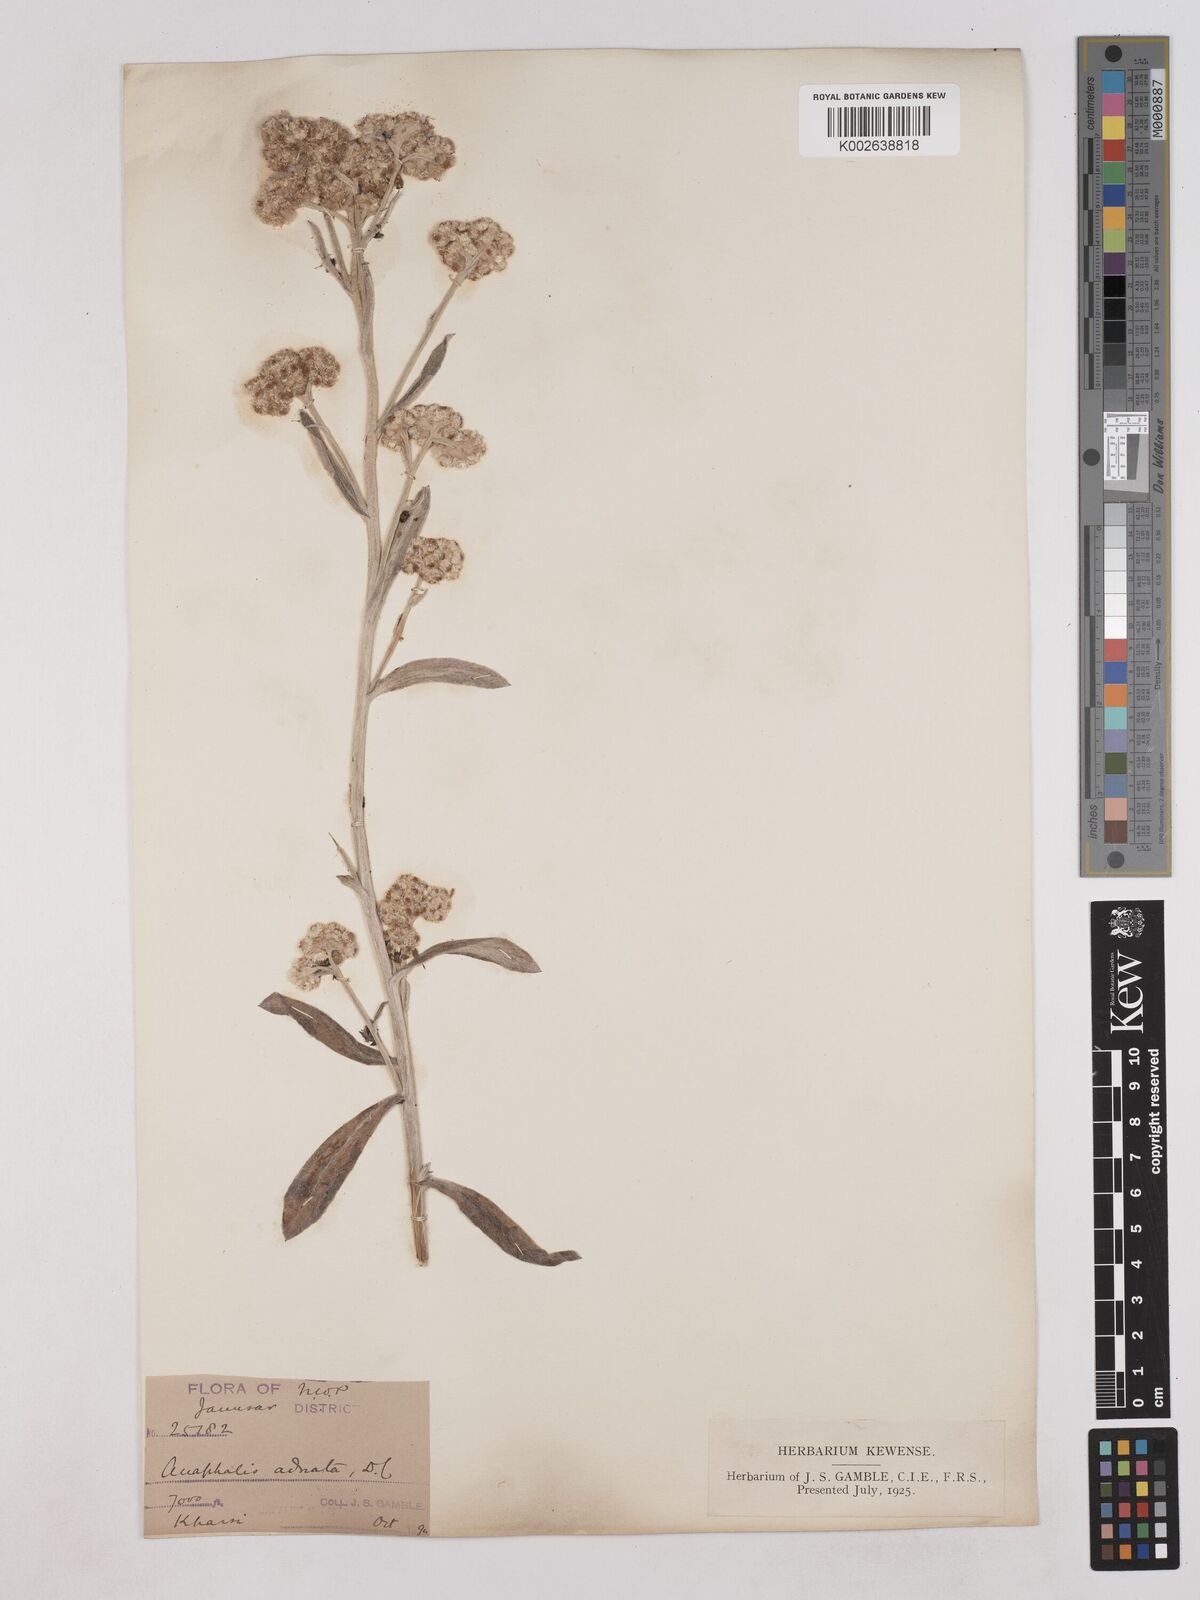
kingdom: Plantae
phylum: Tracheophyta
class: Magnoliopsida
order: Asterales
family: Asteraceae
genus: Pseudognaphalium
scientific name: Pseudognaphalium adnatum
